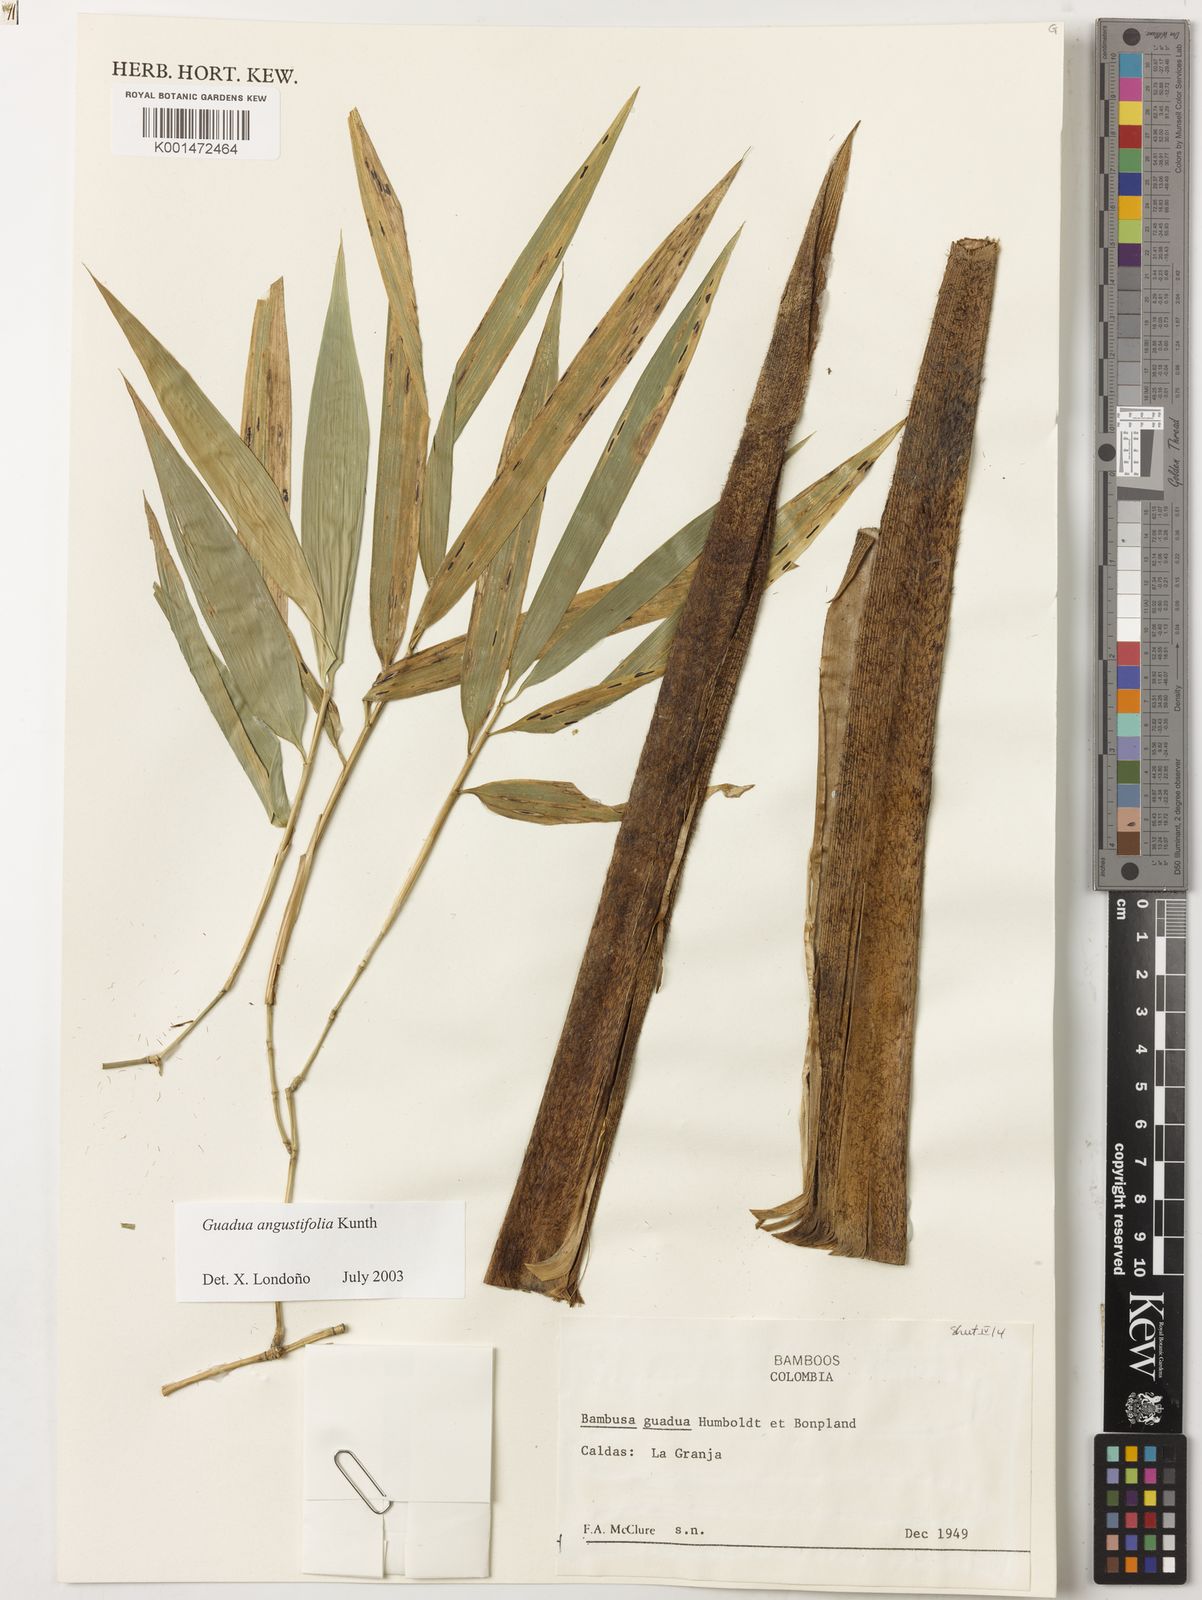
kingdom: Plantae
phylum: Tracheophyta
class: Liliopsida
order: Poales
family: Poaceae
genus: Guadua
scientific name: Guadua angustifolia
